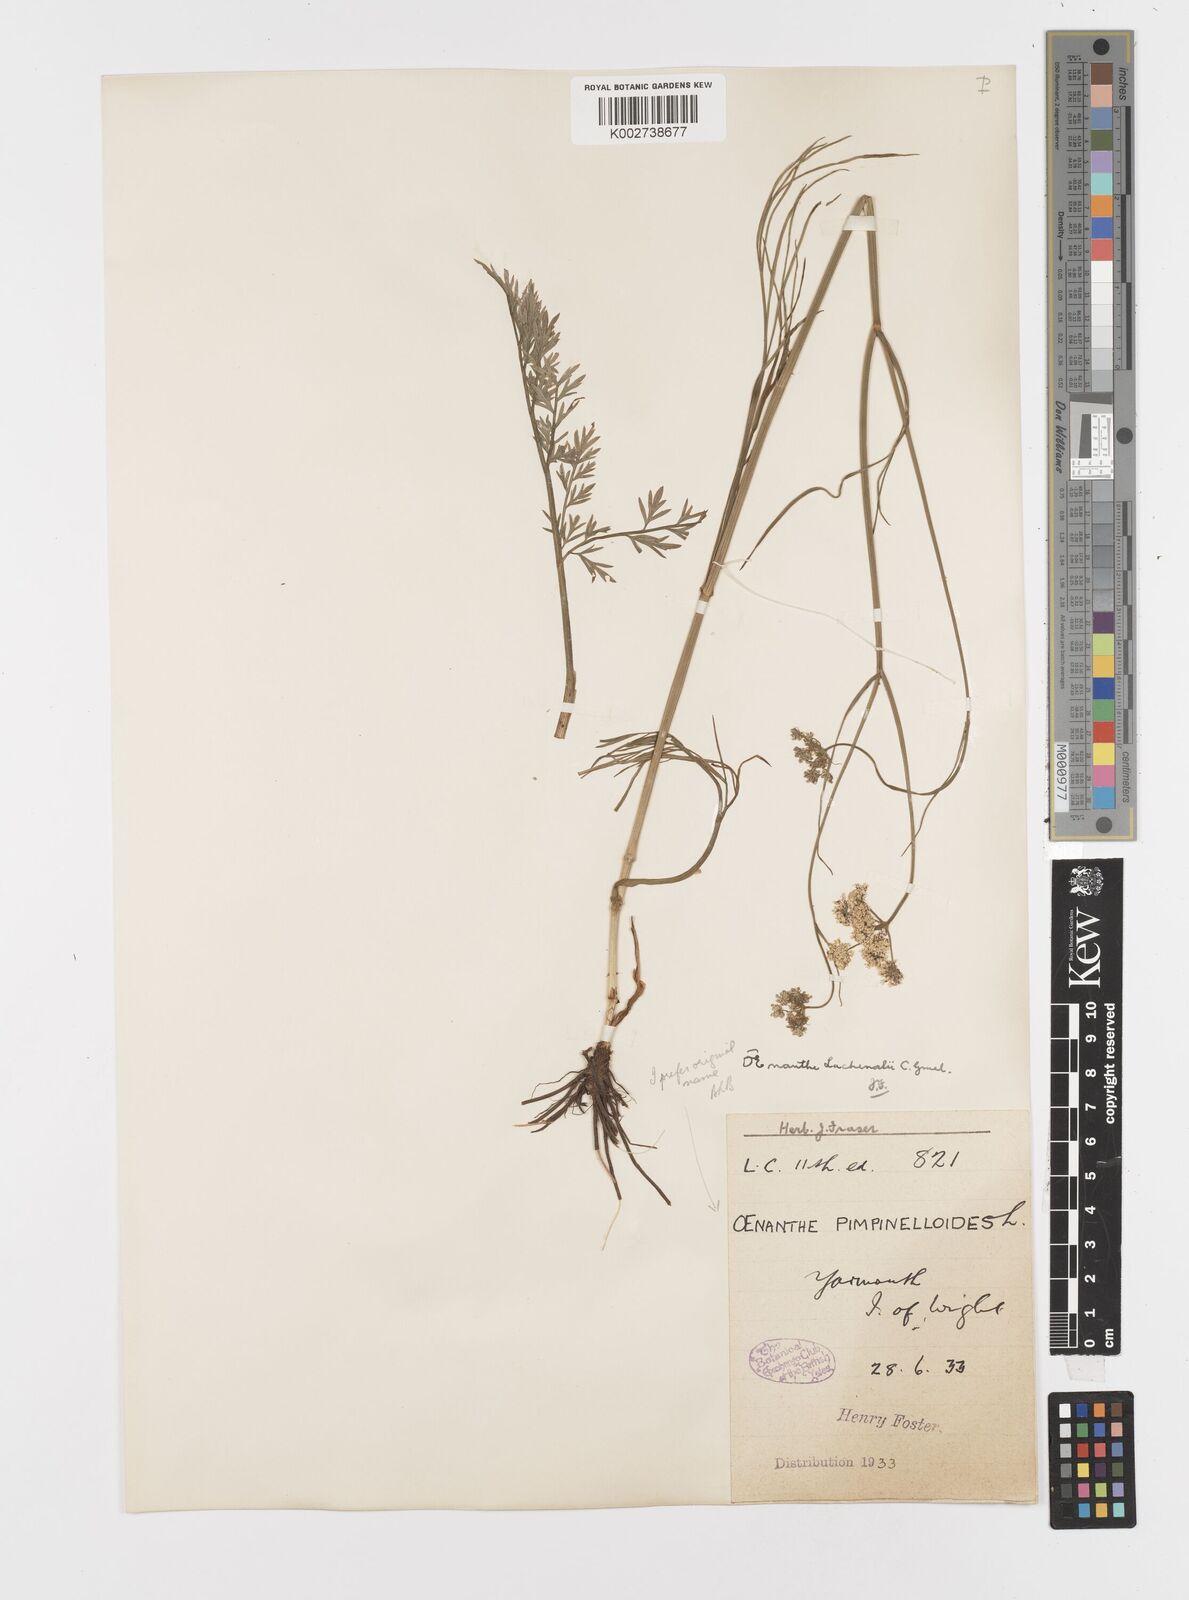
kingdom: Plantae
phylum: Tracheophyta
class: Magnoliopsida
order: Apiales
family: Apiaceae
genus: Oenanthe
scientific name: Oenanthe pimpinelloides
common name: Corky-fruited water-dropwort
